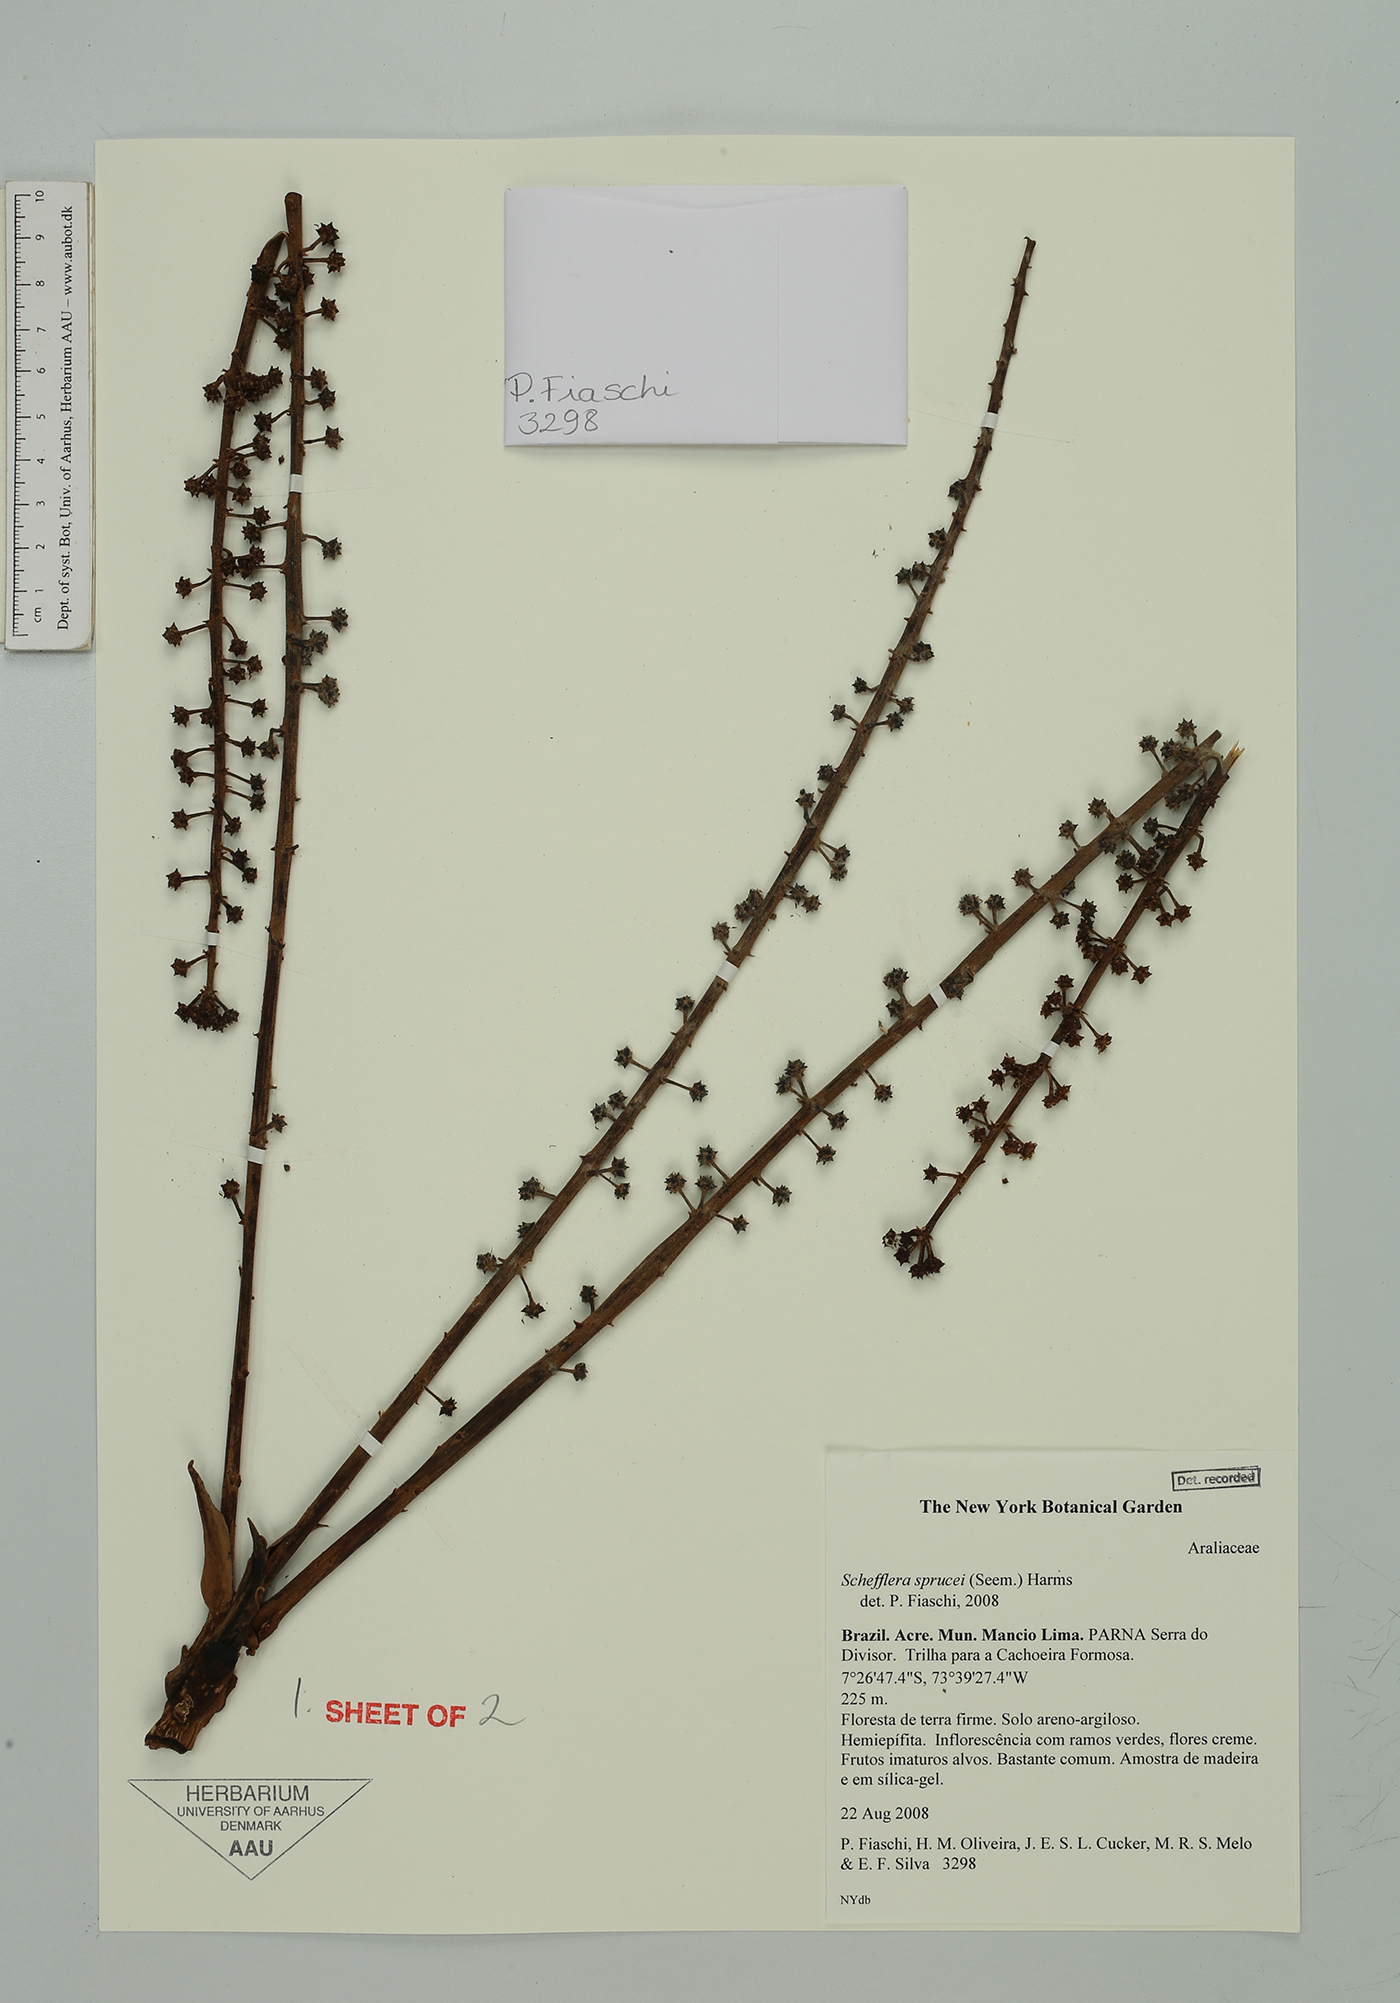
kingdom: Plantae
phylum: Tracheophyta
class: Magnoliopsida
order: Apiales
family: Araliaceae
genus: Sciodaphyllum
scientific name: Sciodaphyllum sprucei
